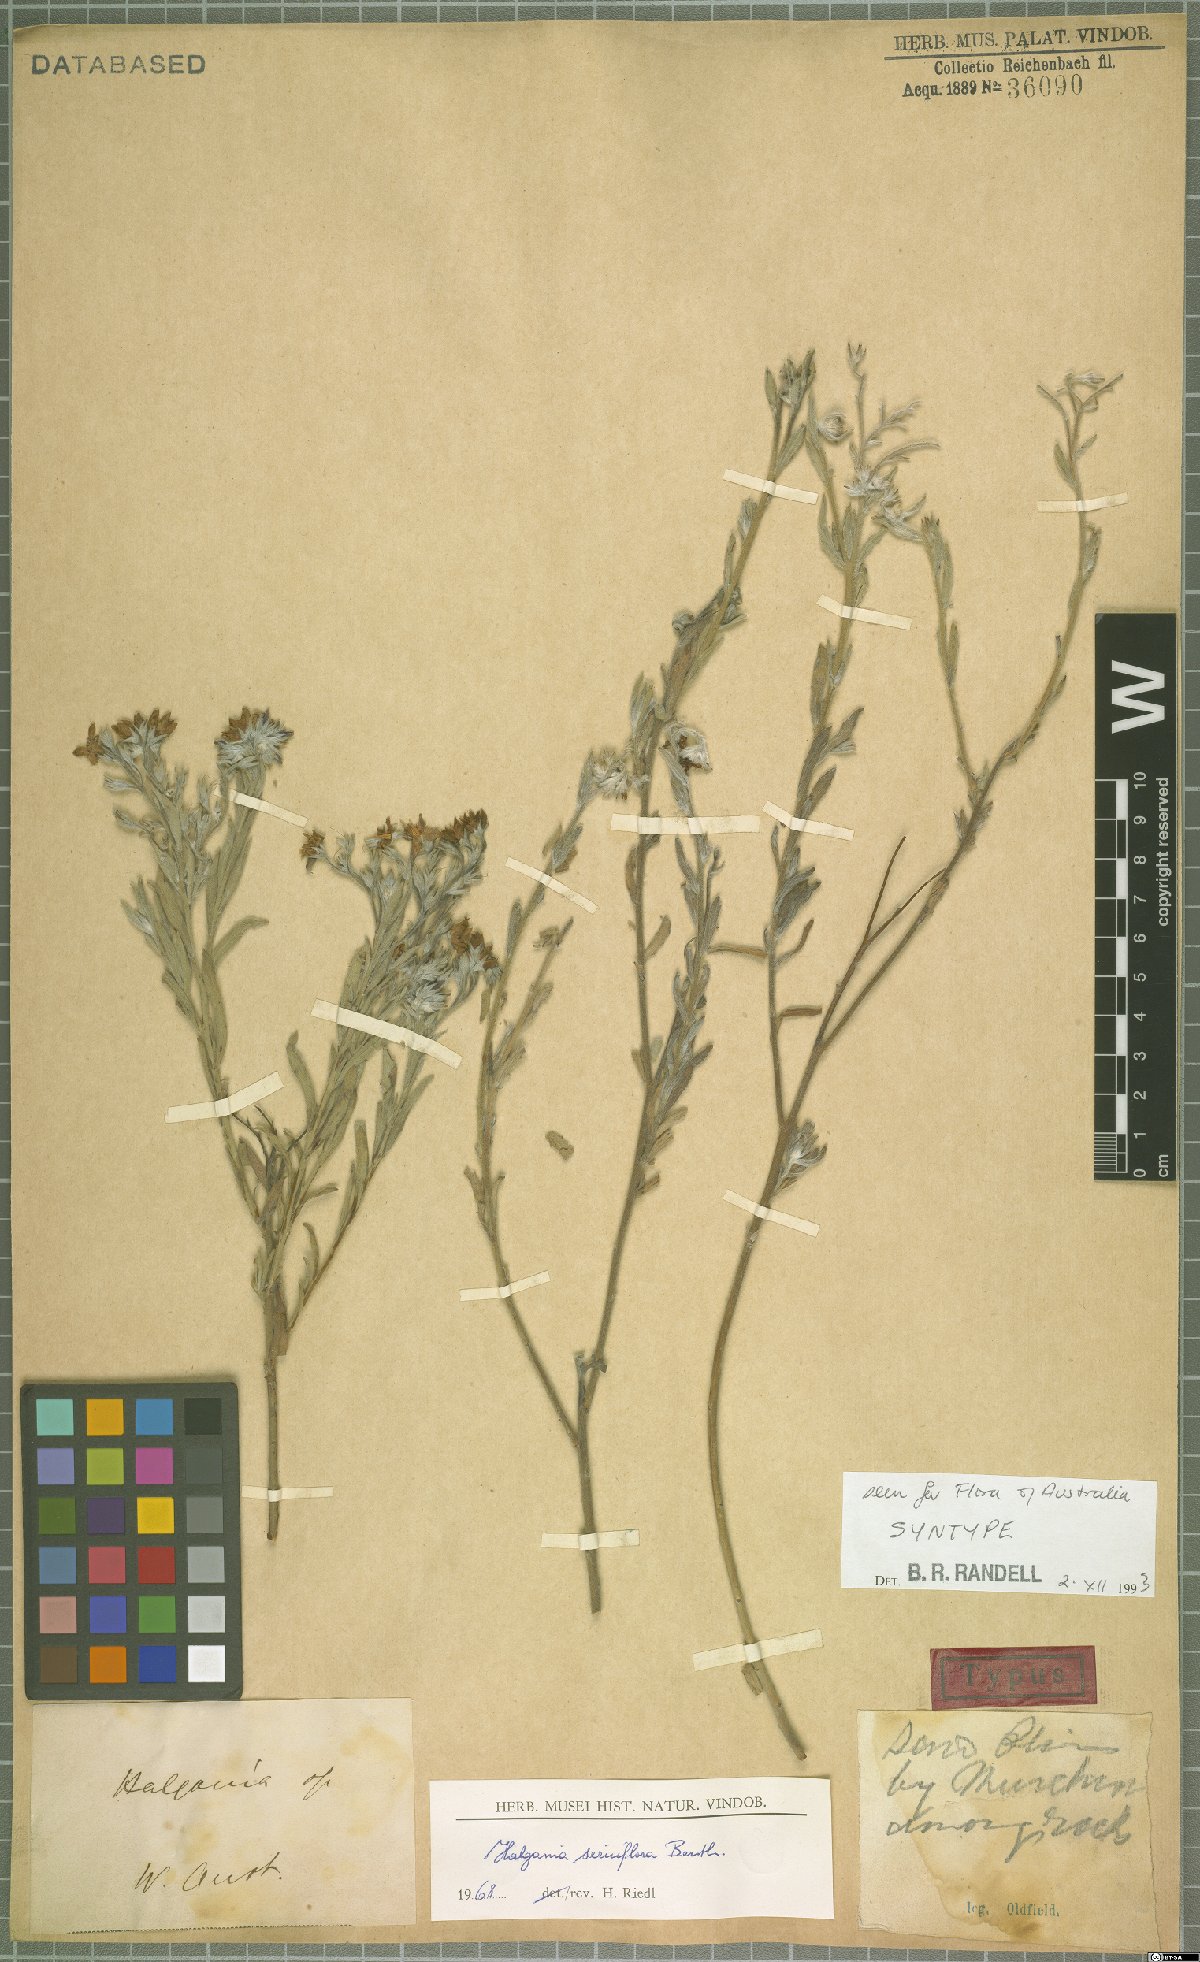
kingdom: Plantae
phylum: Tracheophyta
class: Magnoliopsida
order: Boraginales
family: Ehretiaceae
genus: Halgania
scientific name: Halgania sericiflora
